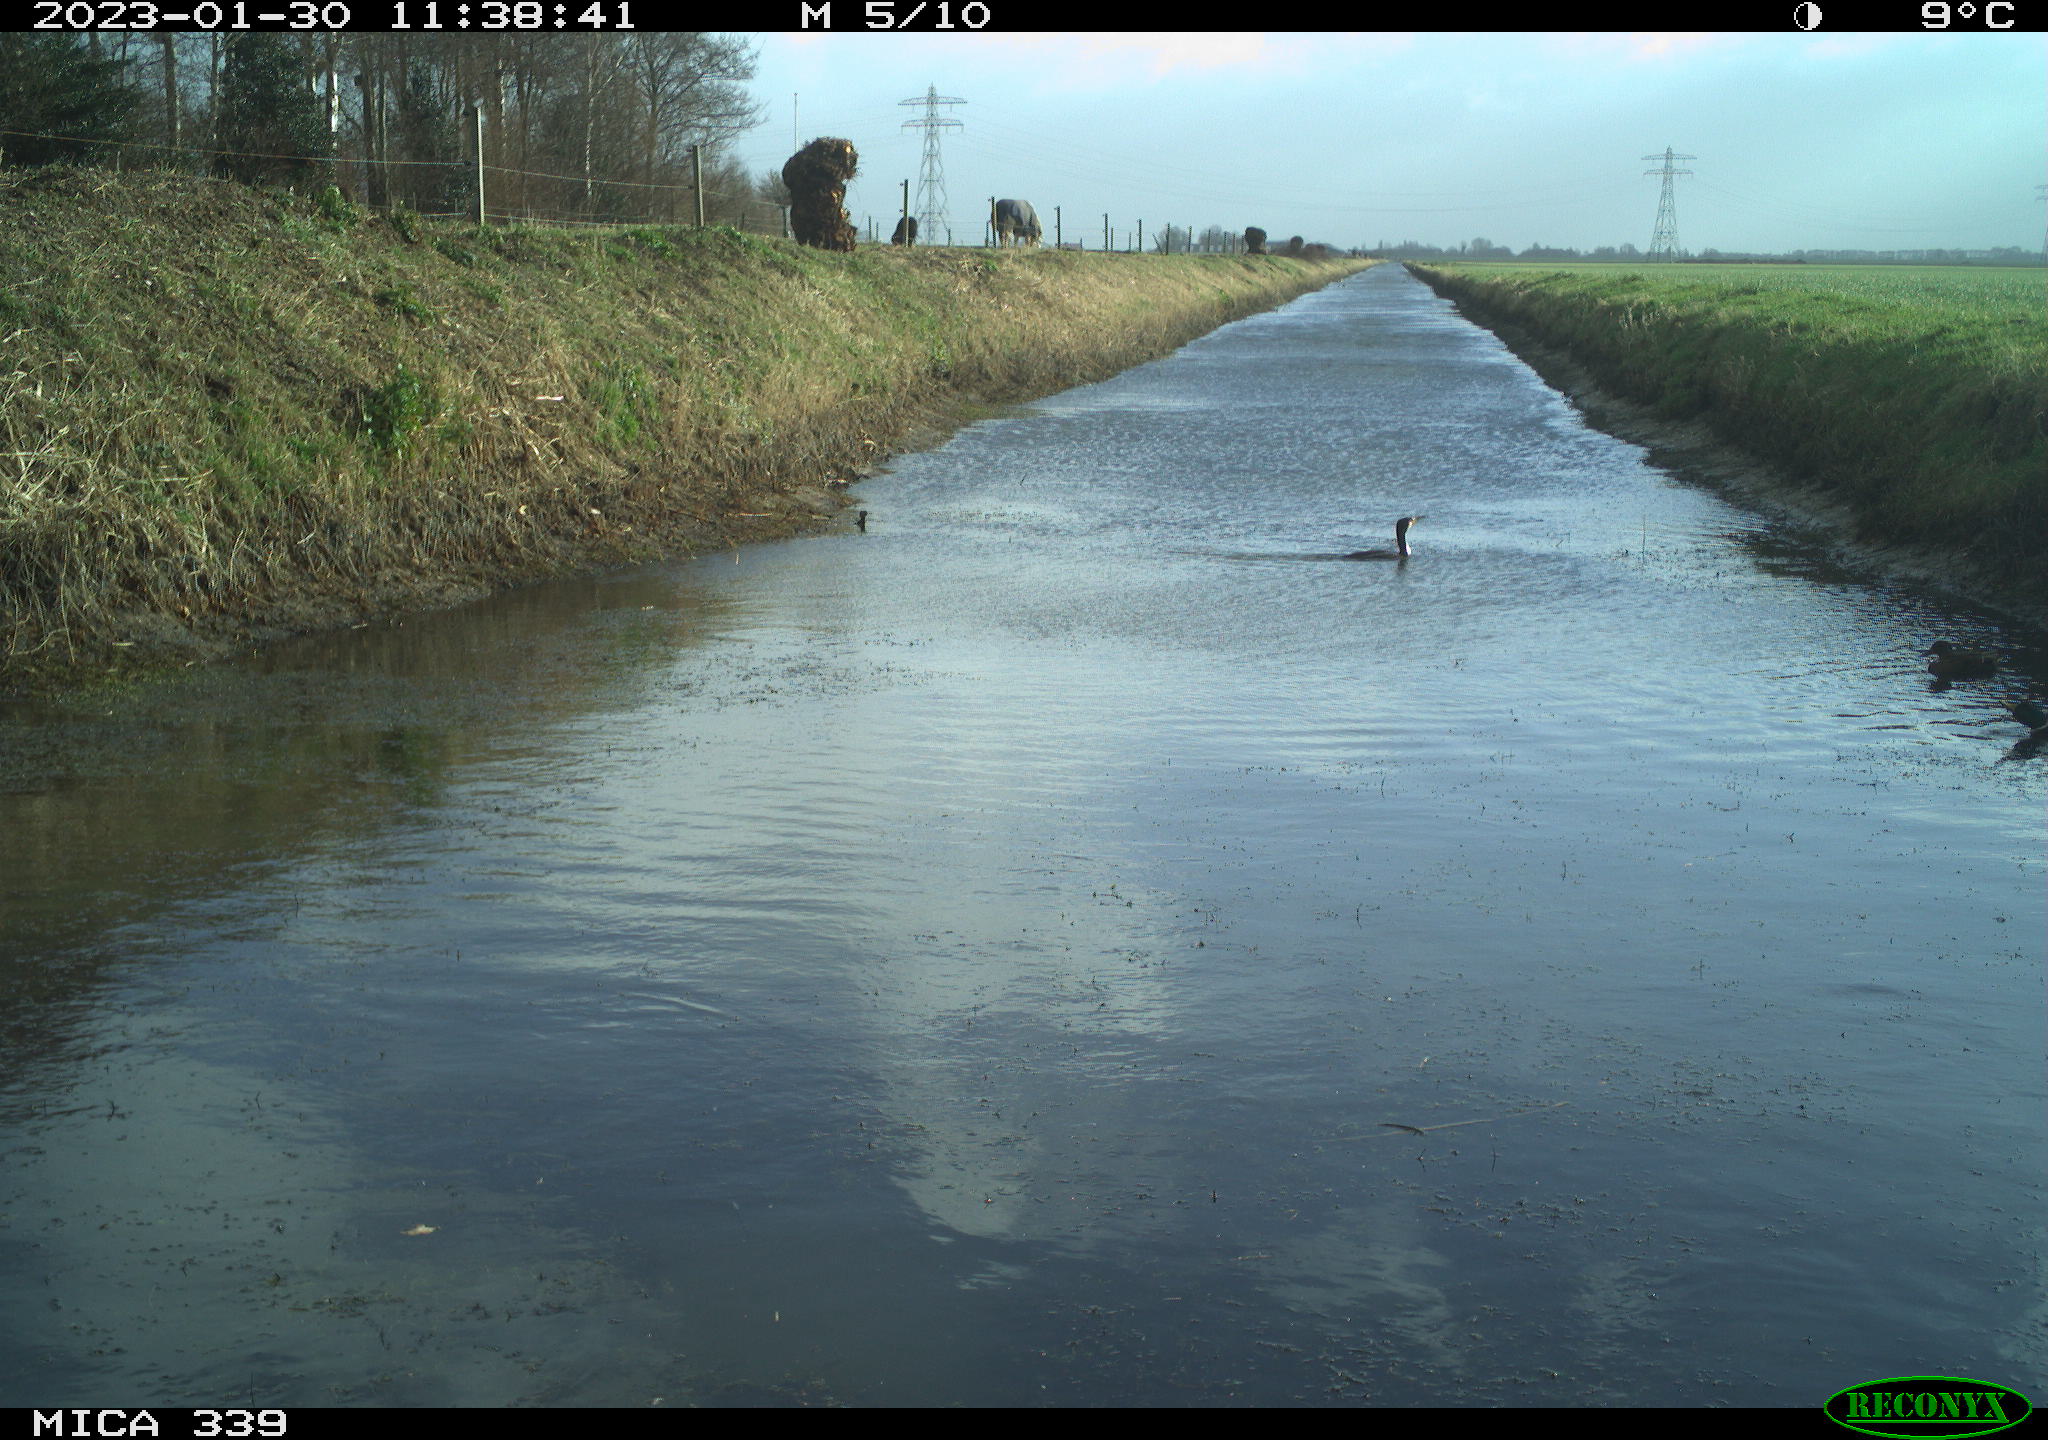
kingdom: Animalia
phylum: Chordata
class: Aves
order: Pelecaniformes
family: Ardeidae
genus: Ardea
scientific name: Ardea cinerea
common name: Grey heron
